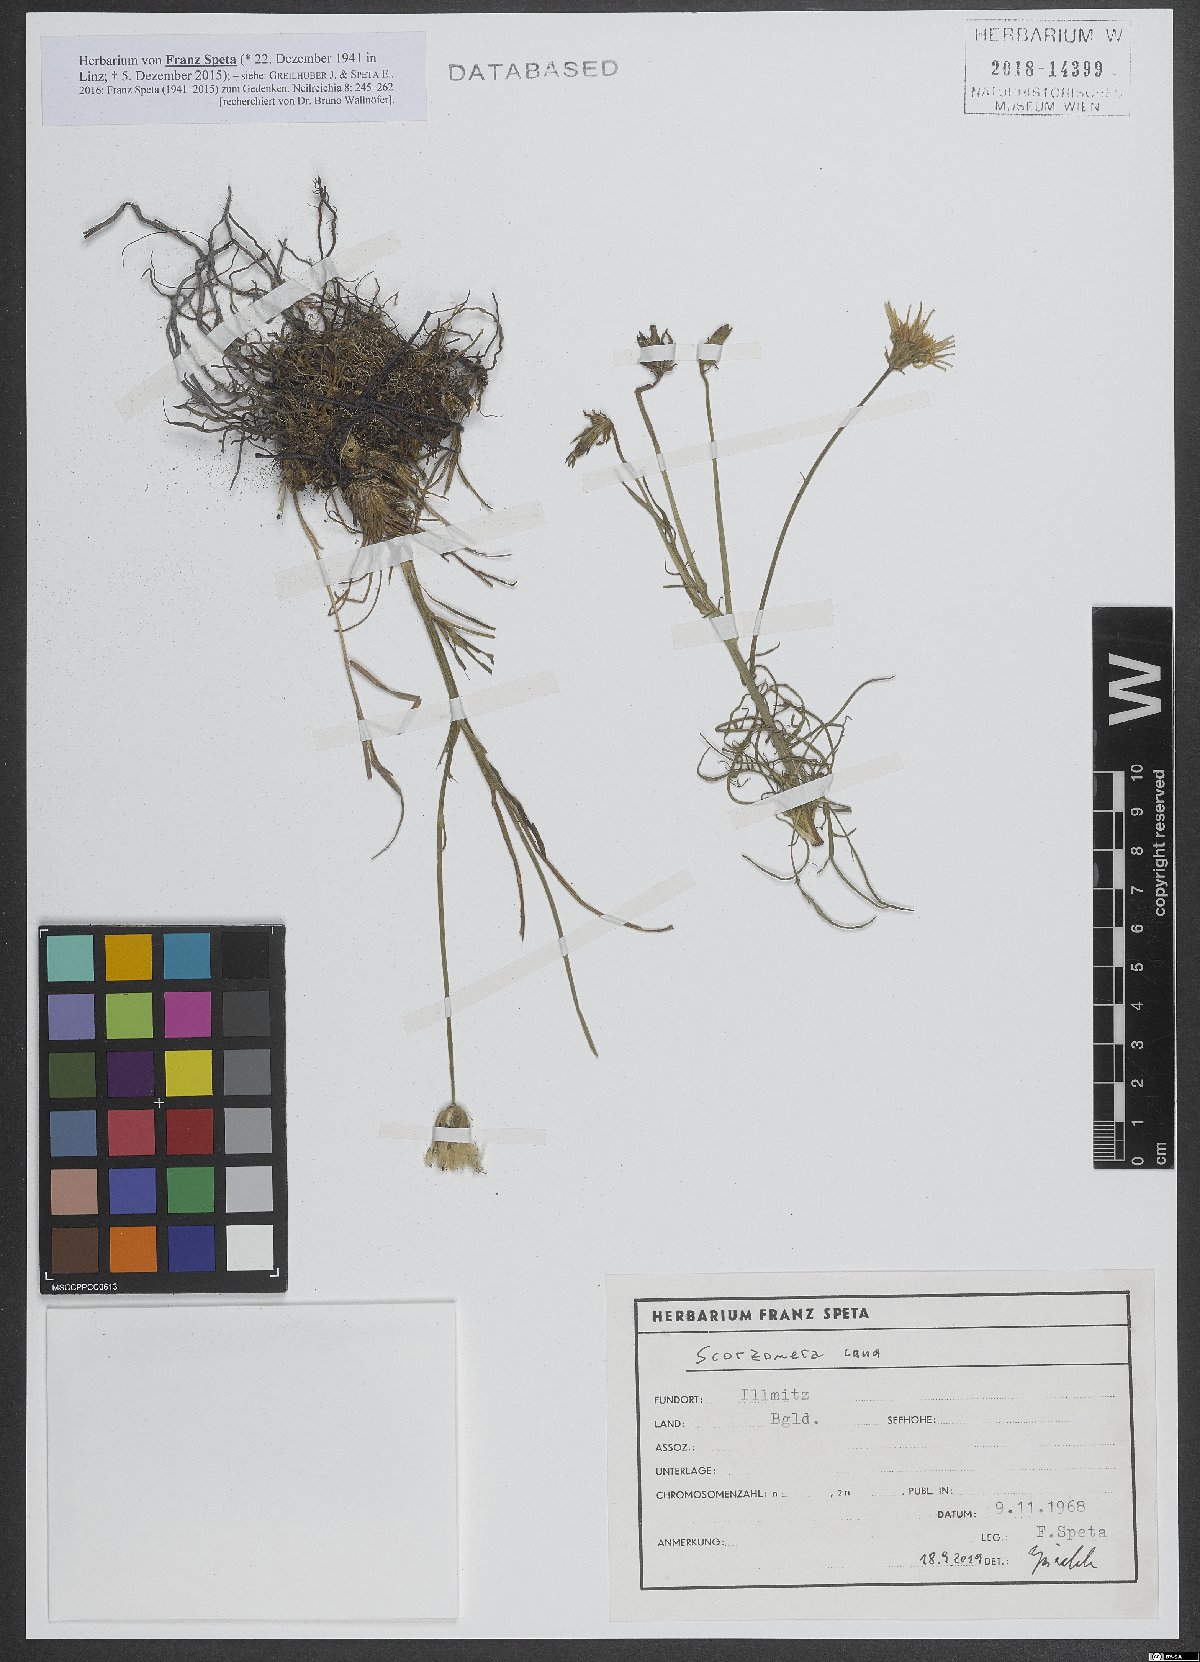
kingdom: Plantae
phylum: Tracheophyta
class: Magnoliopsida
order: Asterales
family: Asteraceae
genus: Scorzonera
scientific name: Scorzonera cana
